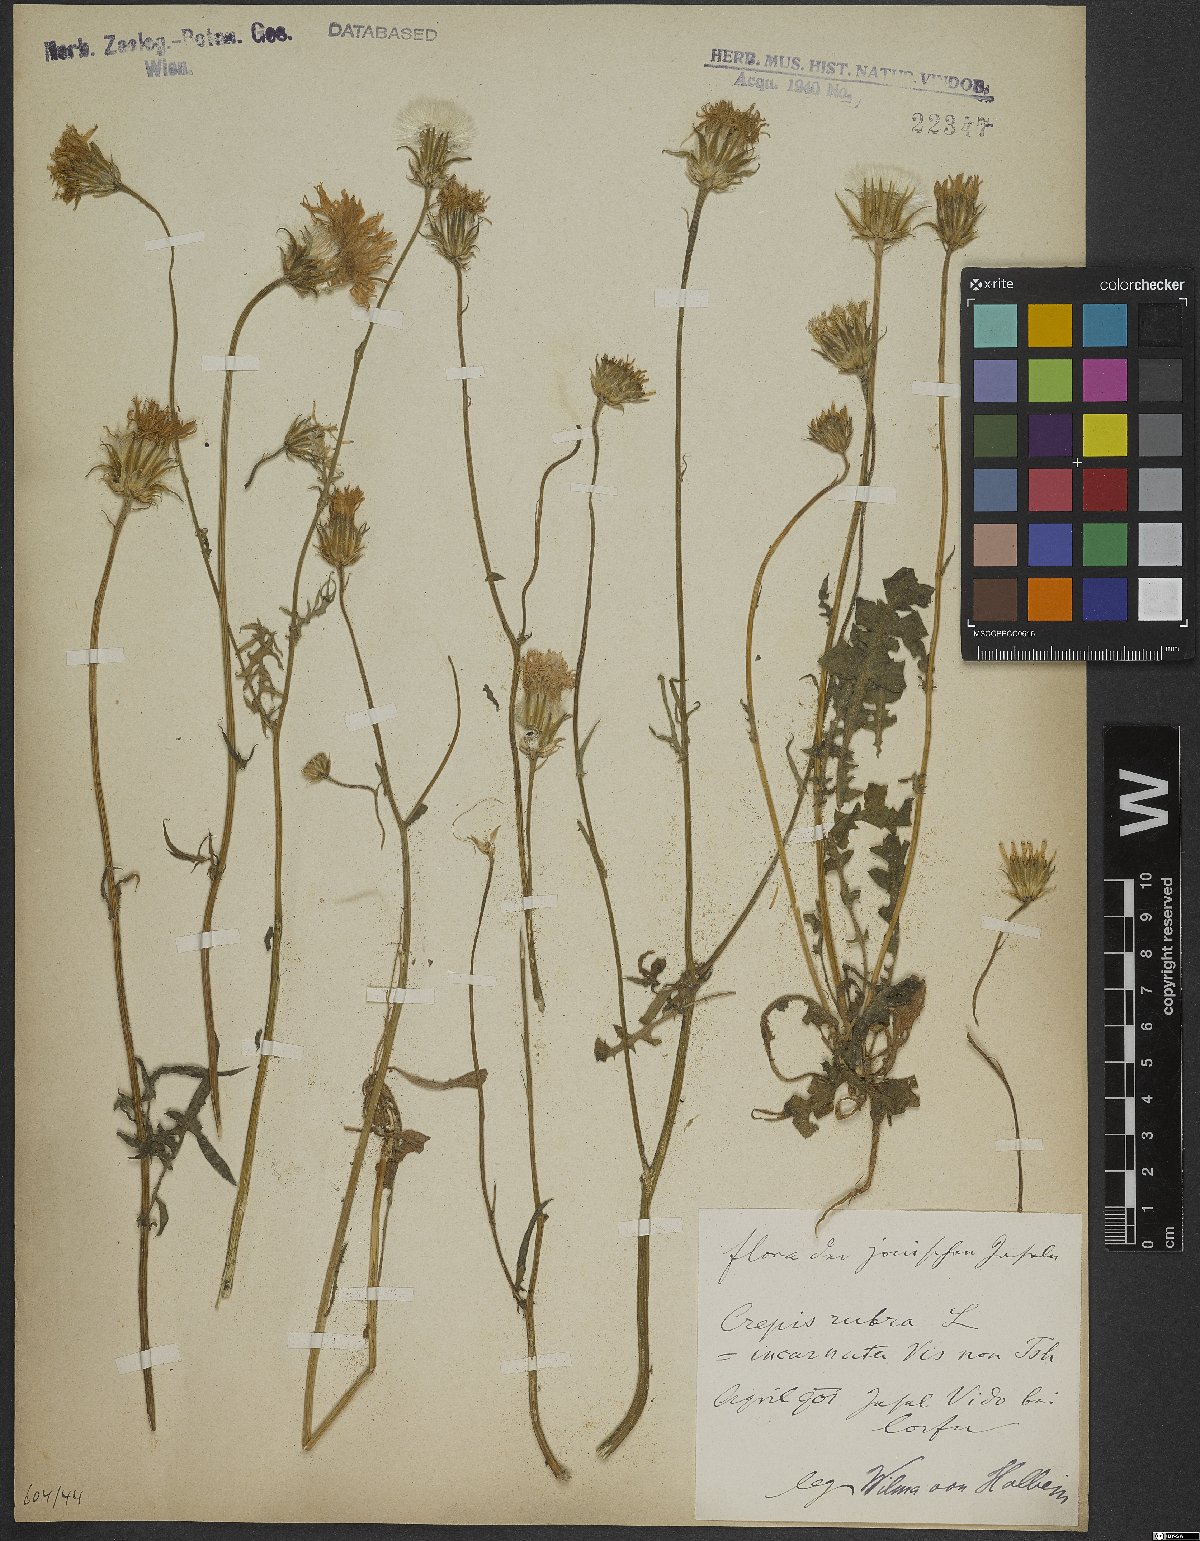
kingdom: Plantae
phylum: Tracheophyta
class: Magnoliopsida
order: Asterales
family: Asteraceae
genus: Crepis
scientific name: Crepis rubra
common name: Pink hawk's-beard
